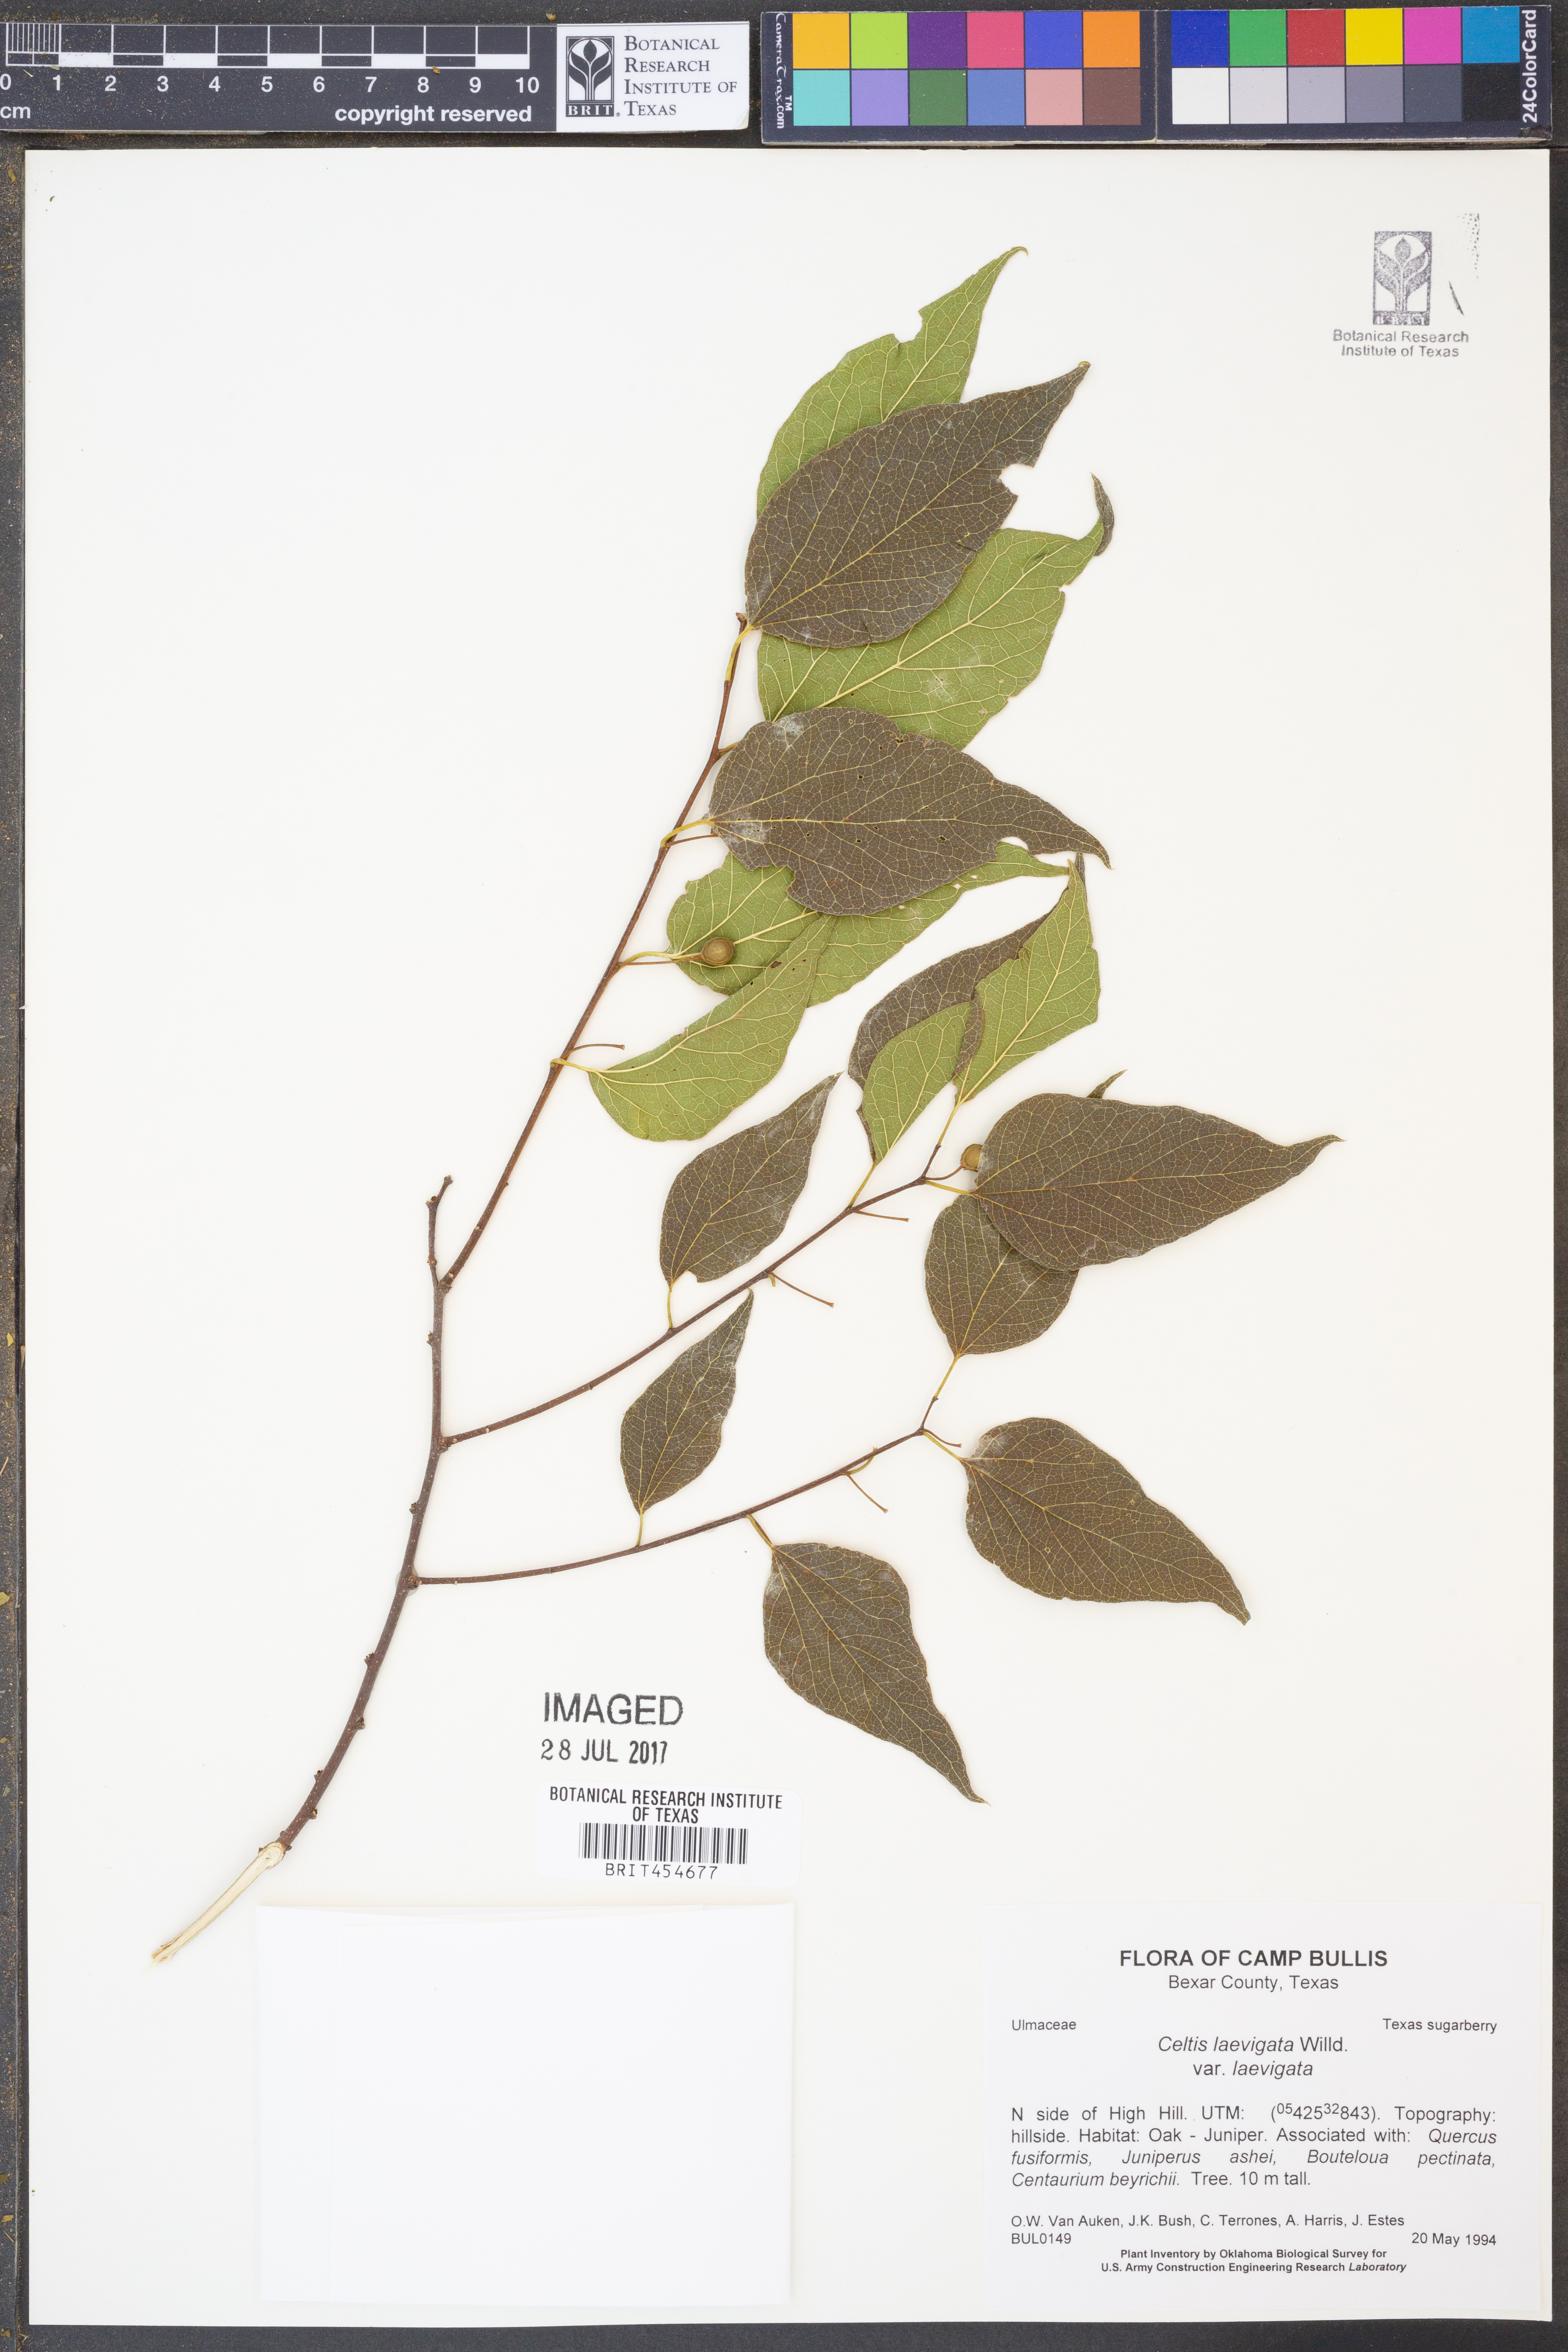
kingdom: Plantae
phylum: Tracheophyta
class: Magnoliopsida
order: Rosales
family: Cannabaceae
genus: Celtis
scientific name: Celtis laevigata
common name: Sugarberry
